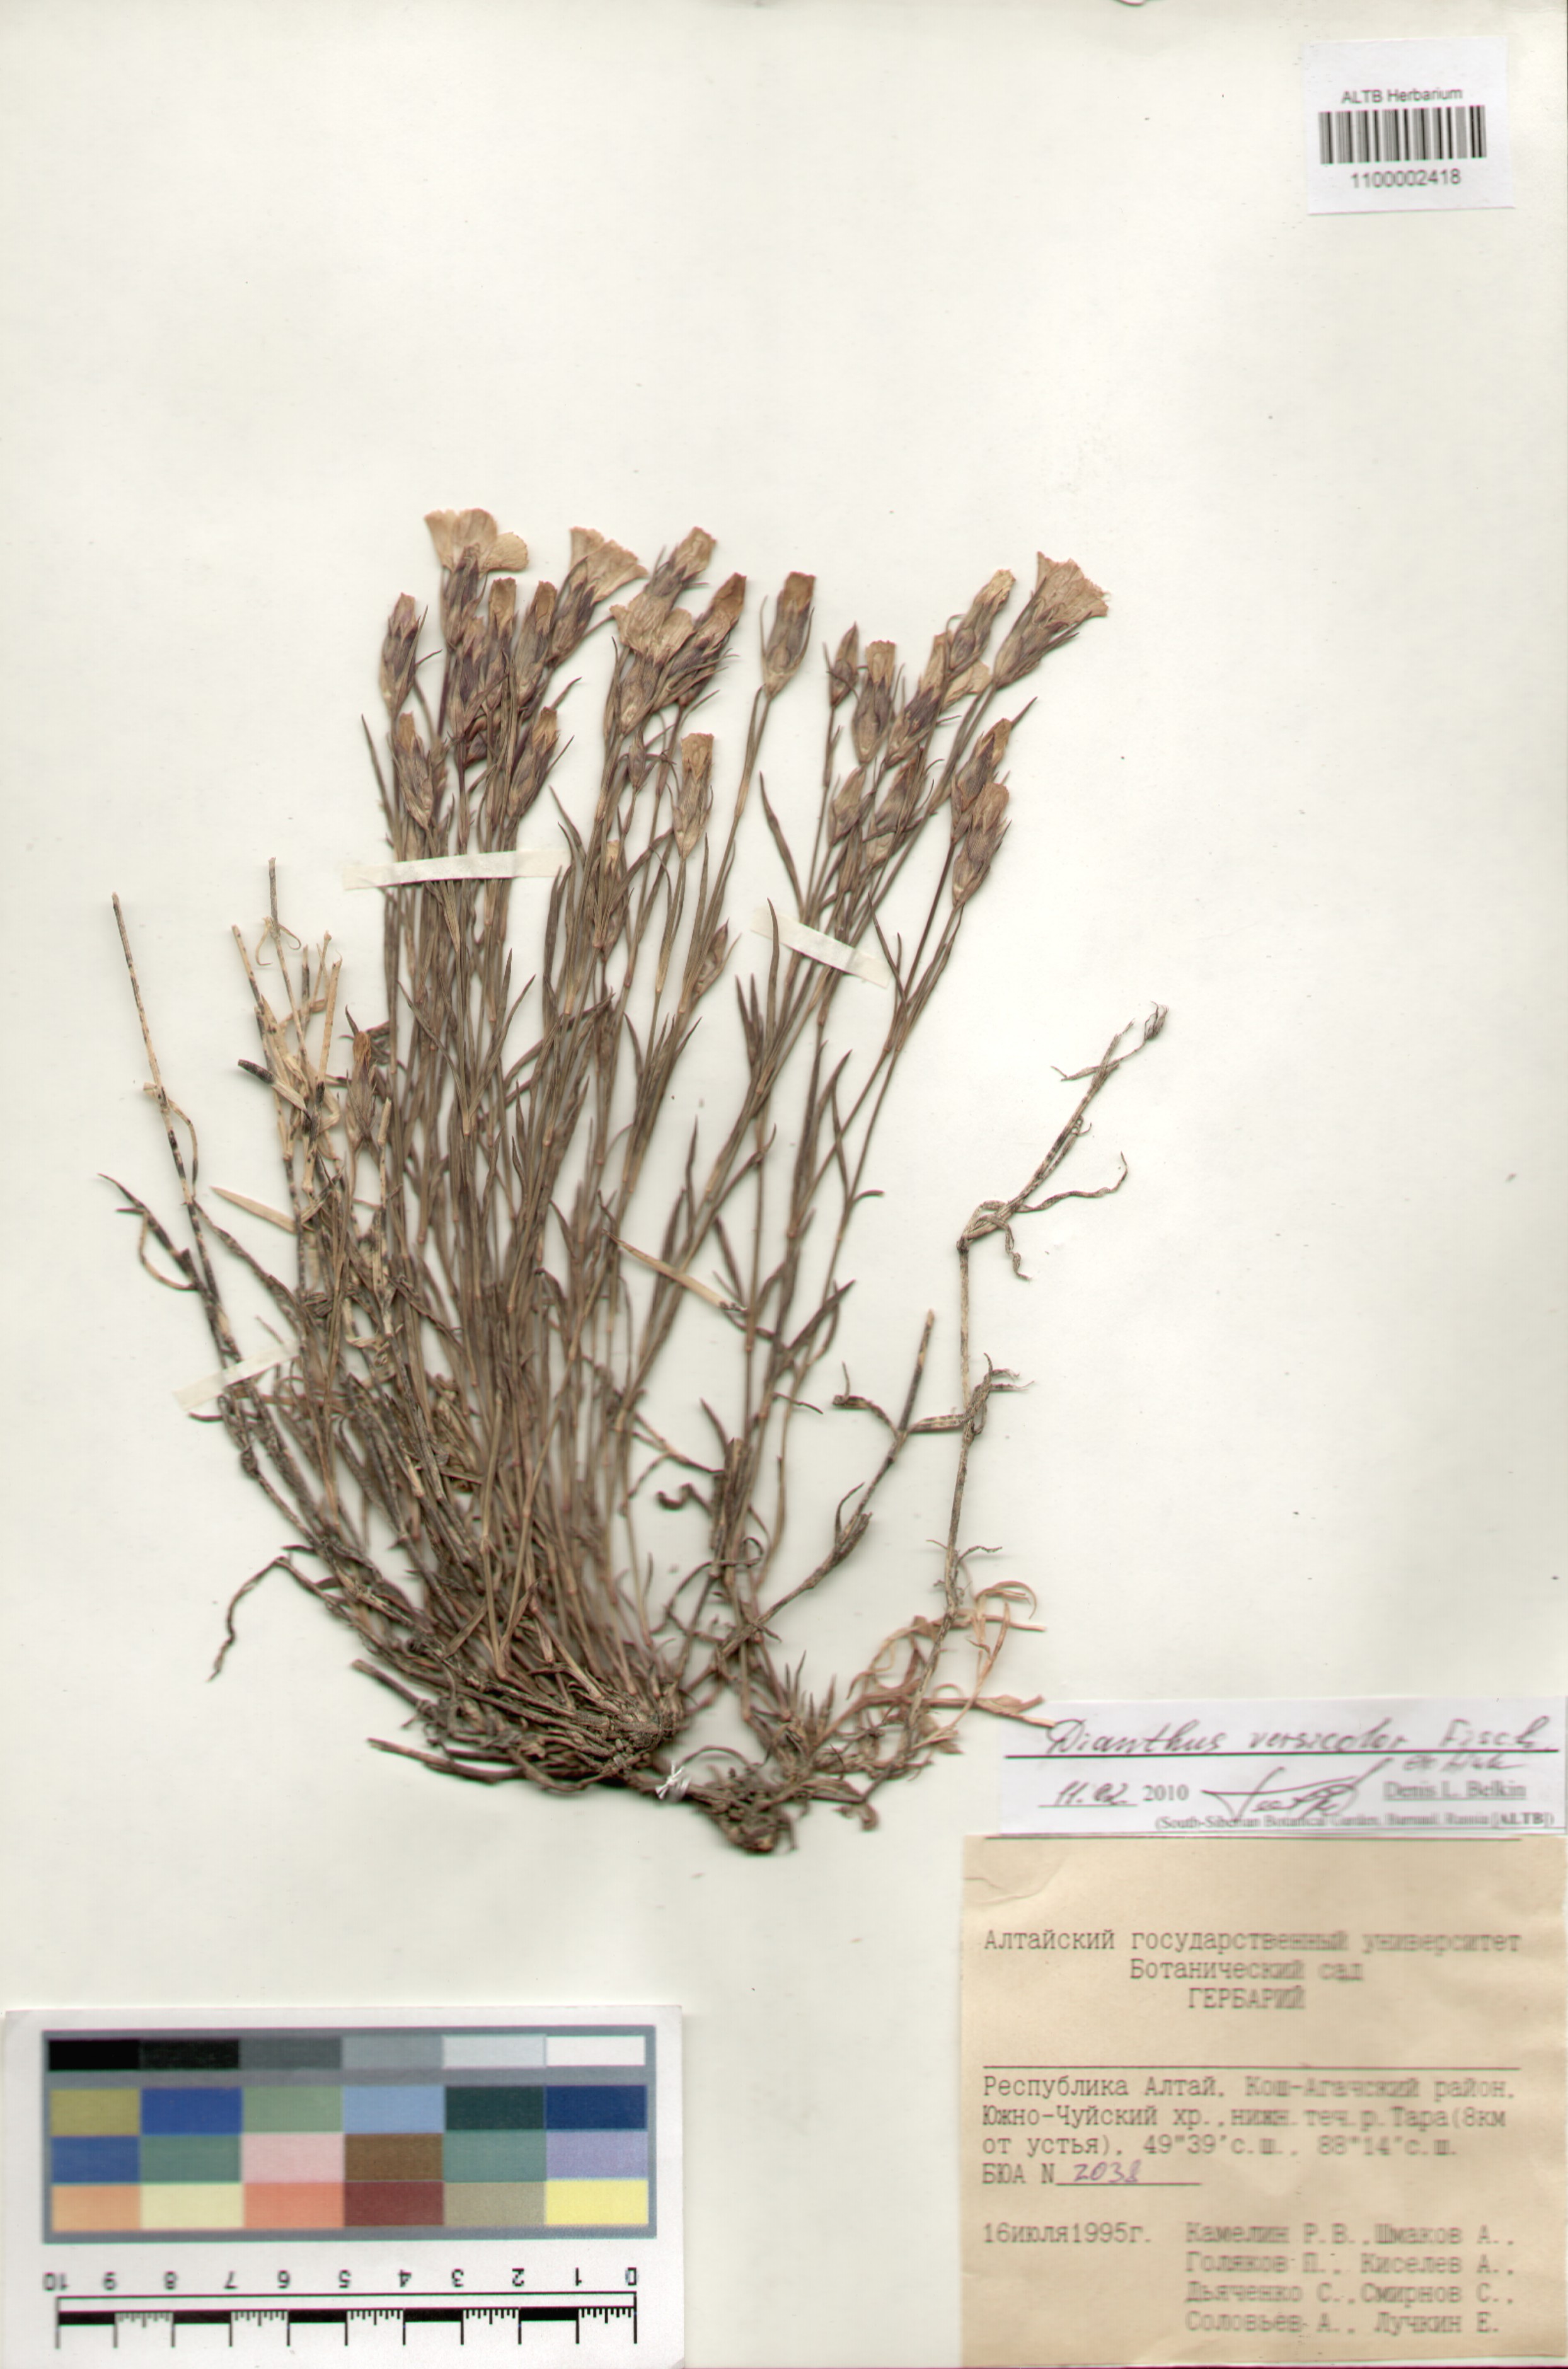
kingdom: Plantae
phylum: Tracheophyta
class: Magnoliopsida
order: Caryophyllales
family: Caryophyllaceae
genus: Dianthus
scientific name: Dianthus chinensis
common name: Rainbow pink
